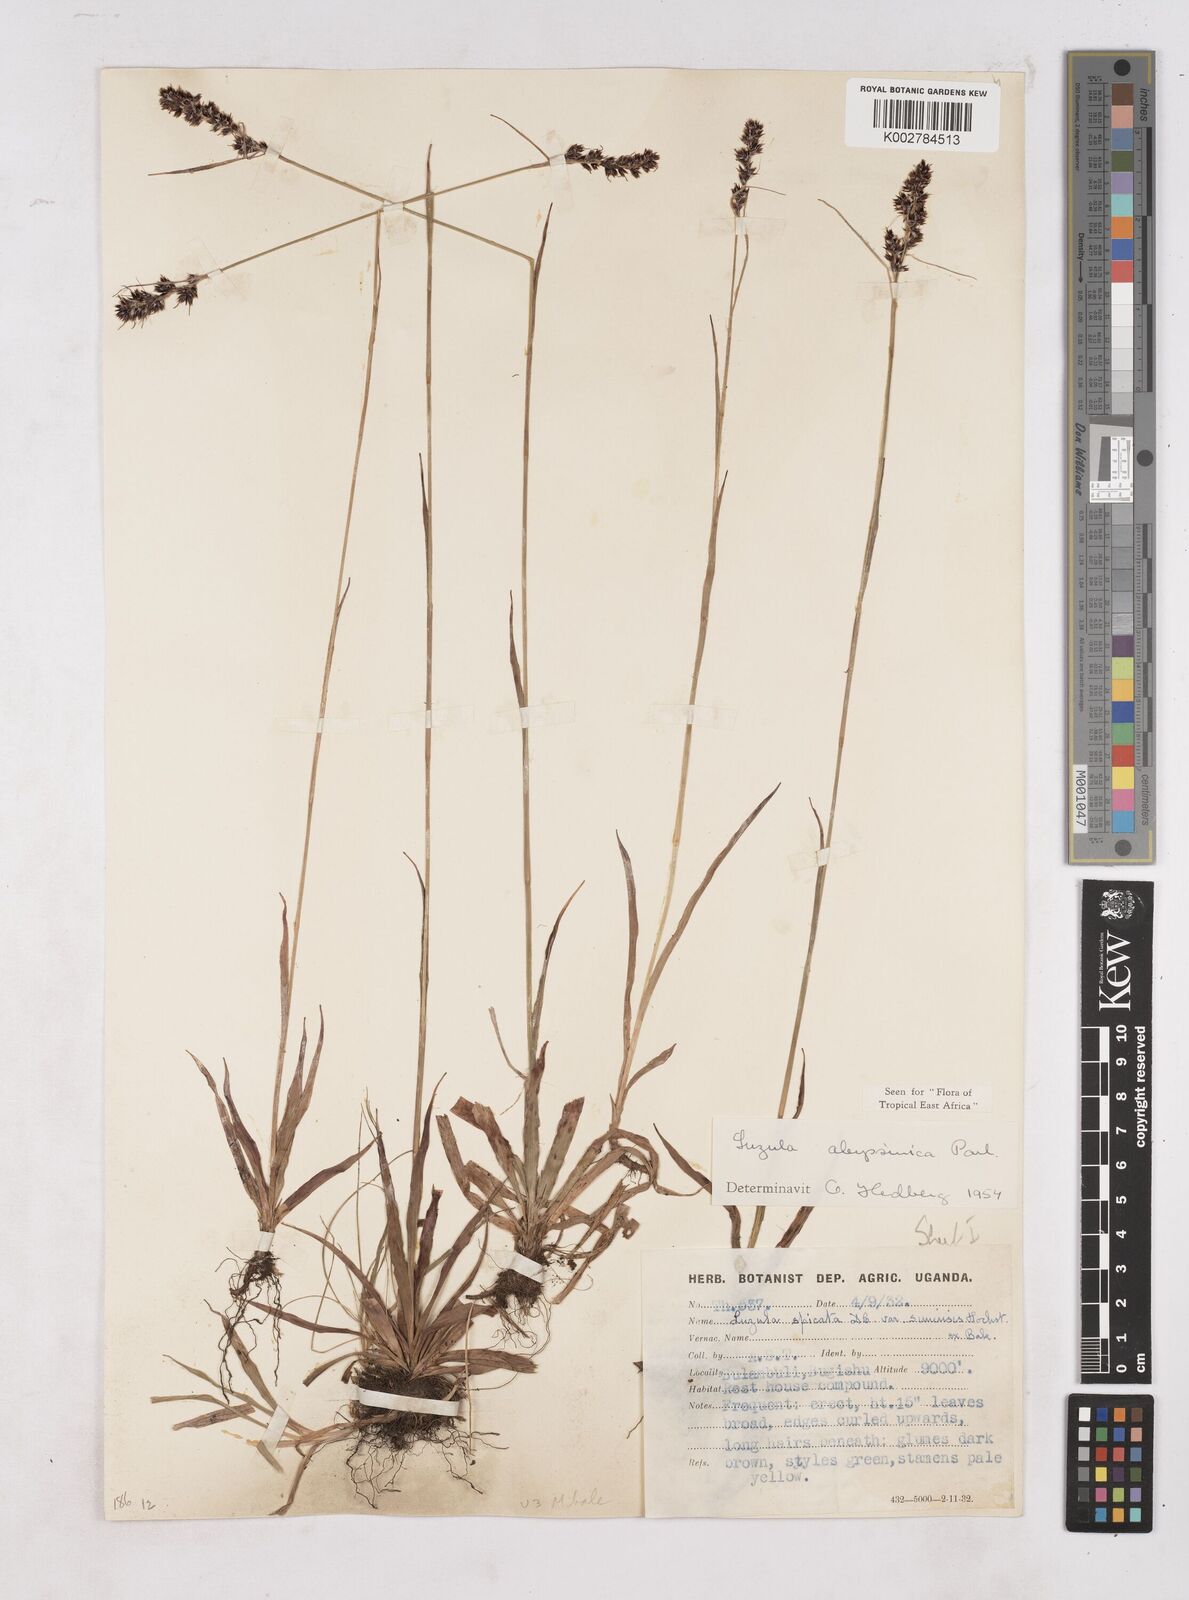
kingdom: Plantae
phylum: Tracheophyta
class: Liliopsida
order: Poales
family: Juncaceae
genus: Luzula
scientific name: Luzula abyssinica
